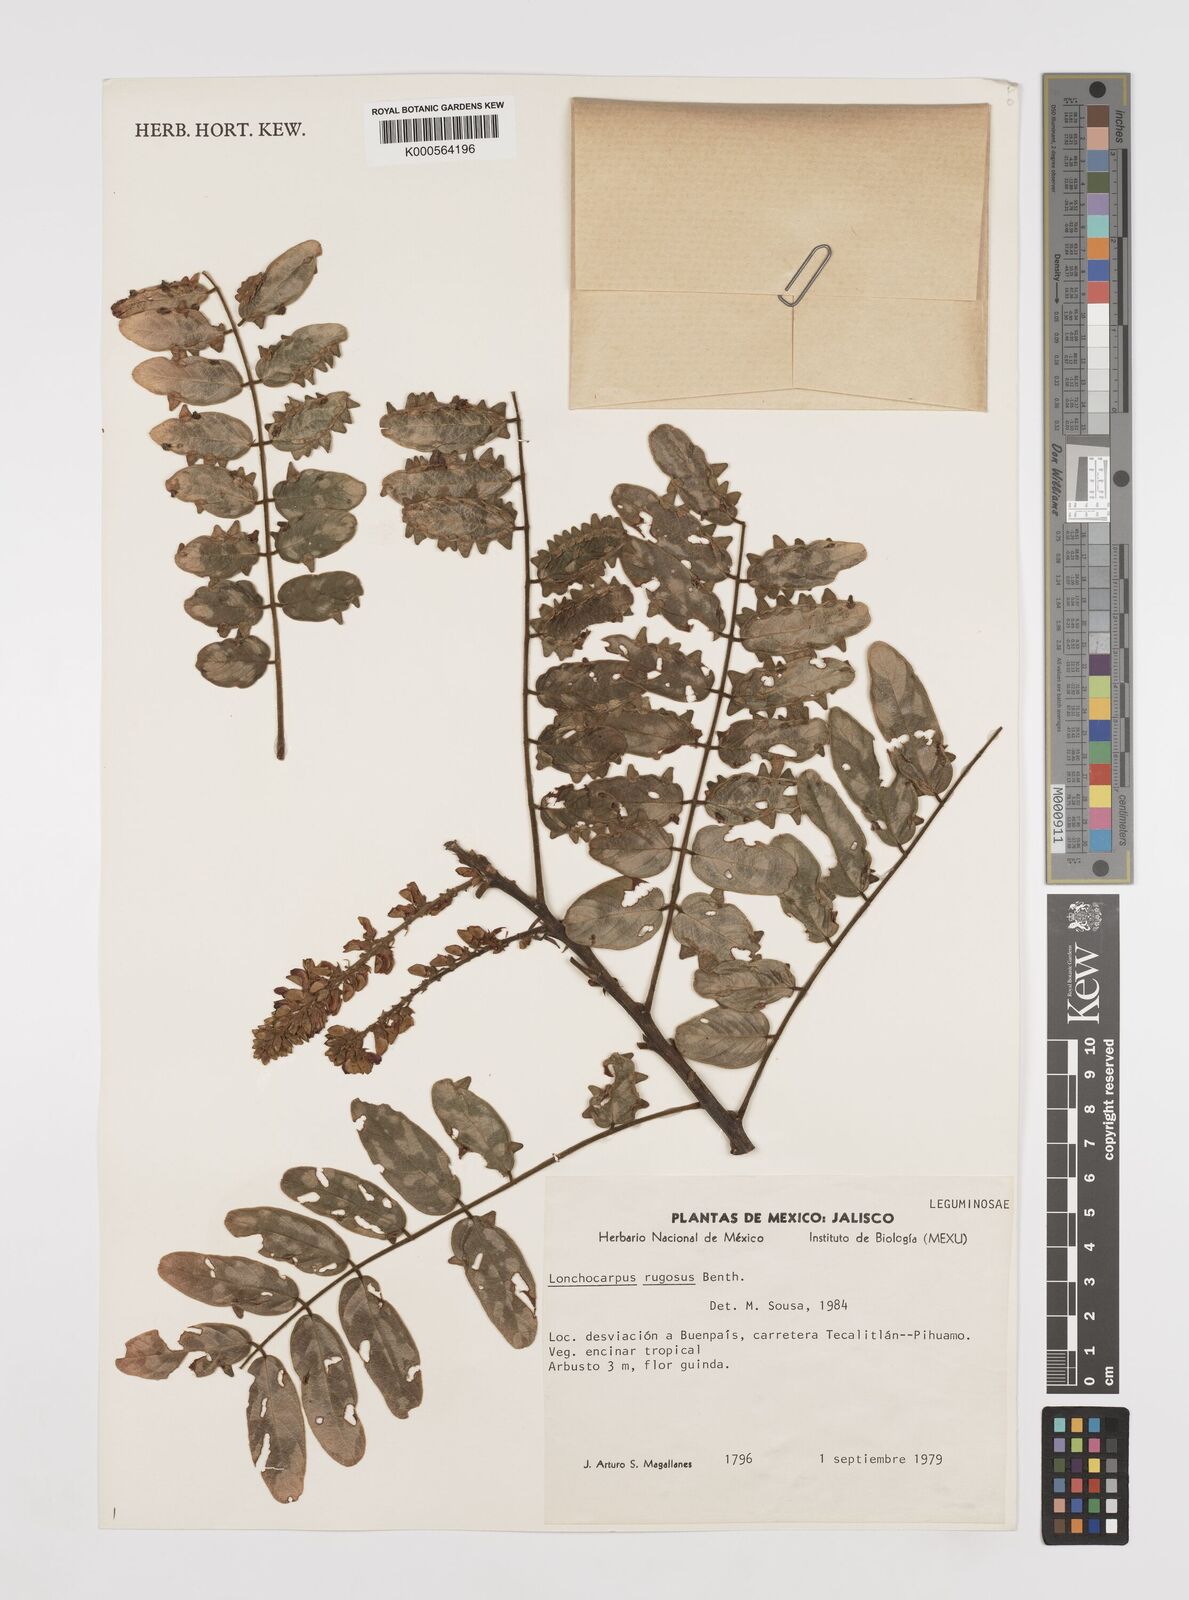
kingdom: Plantae
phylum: Tracheophyta
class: Magnoliopsida
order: Fabales
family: Fabaceae
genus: Lonchocarpus
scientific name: Lonchocarpus rugosus
